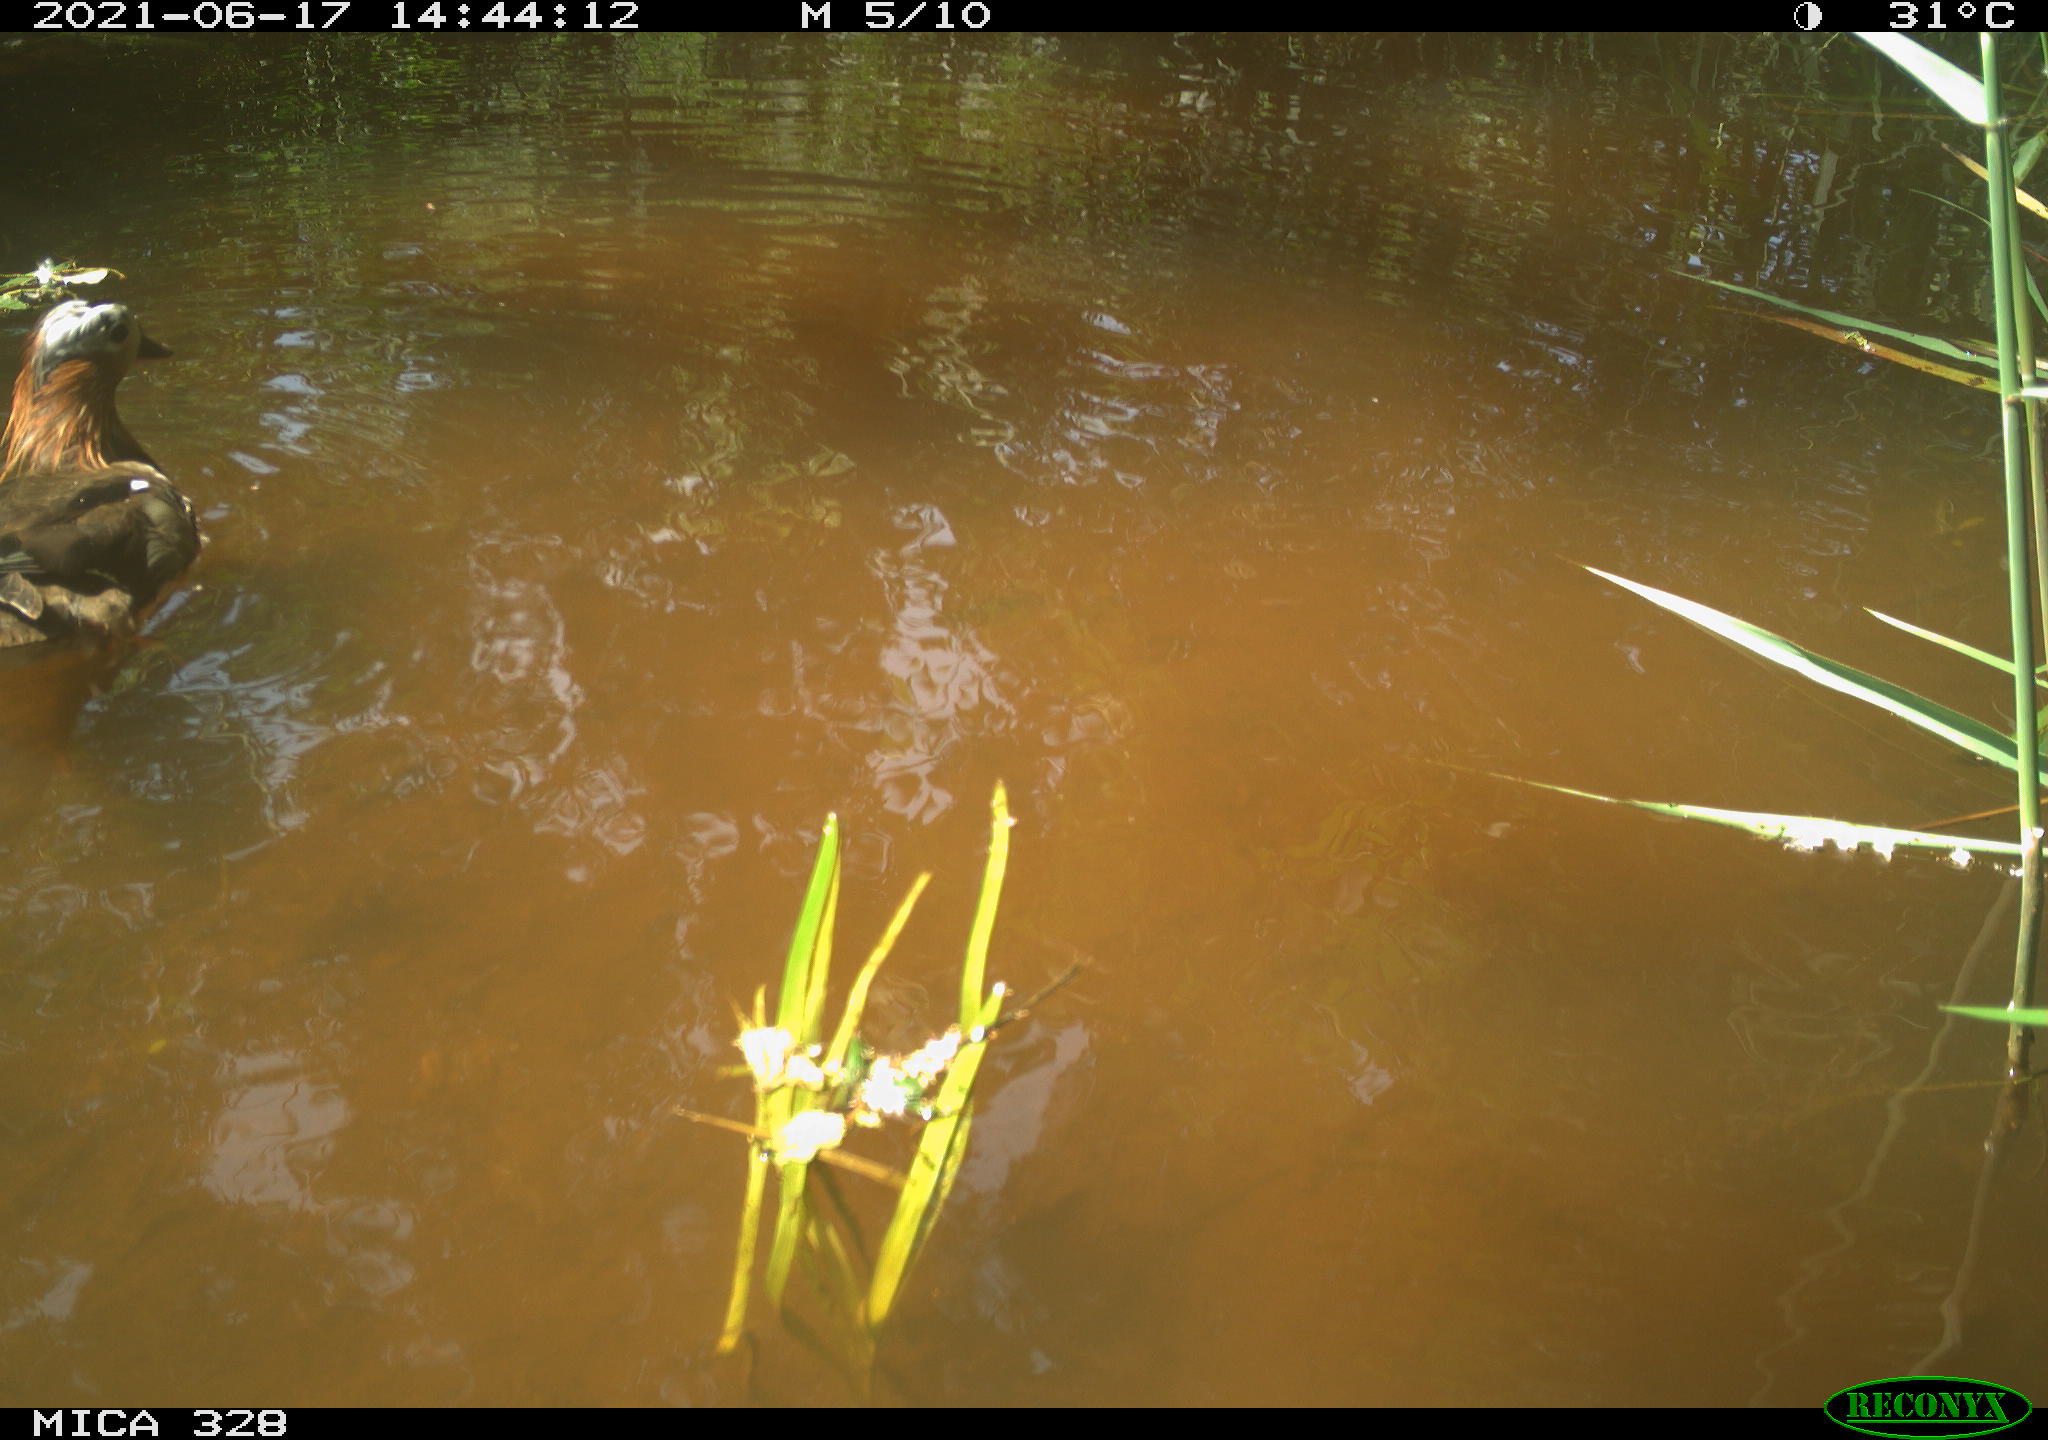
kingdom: Animalia
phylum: Chordata
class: Aves
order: Anseriformes
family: Anatidae
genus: Aix
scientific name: Aix galericulata
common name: Mandarin duck
